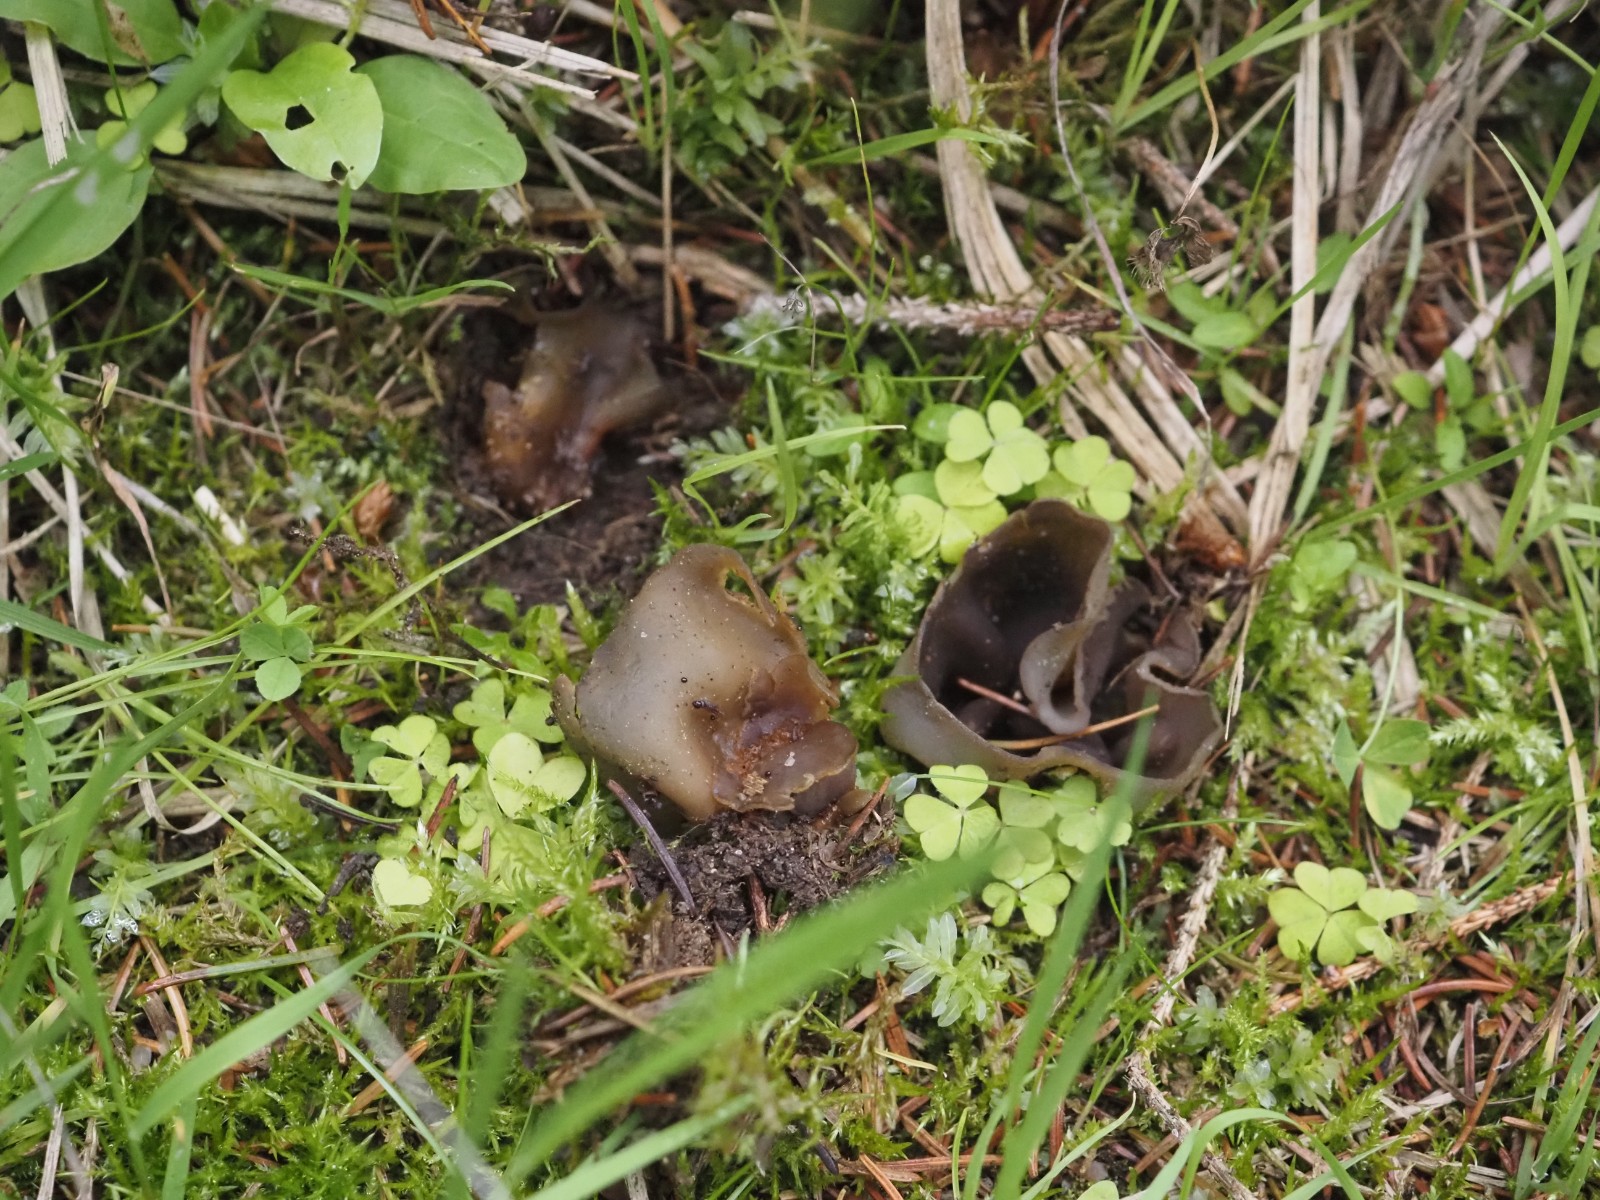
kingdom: Fungi
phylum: Ascomycota
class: Pezizomycetes
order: Pezizales
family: Pezizaceae
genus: Peziza
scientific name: Peziza
